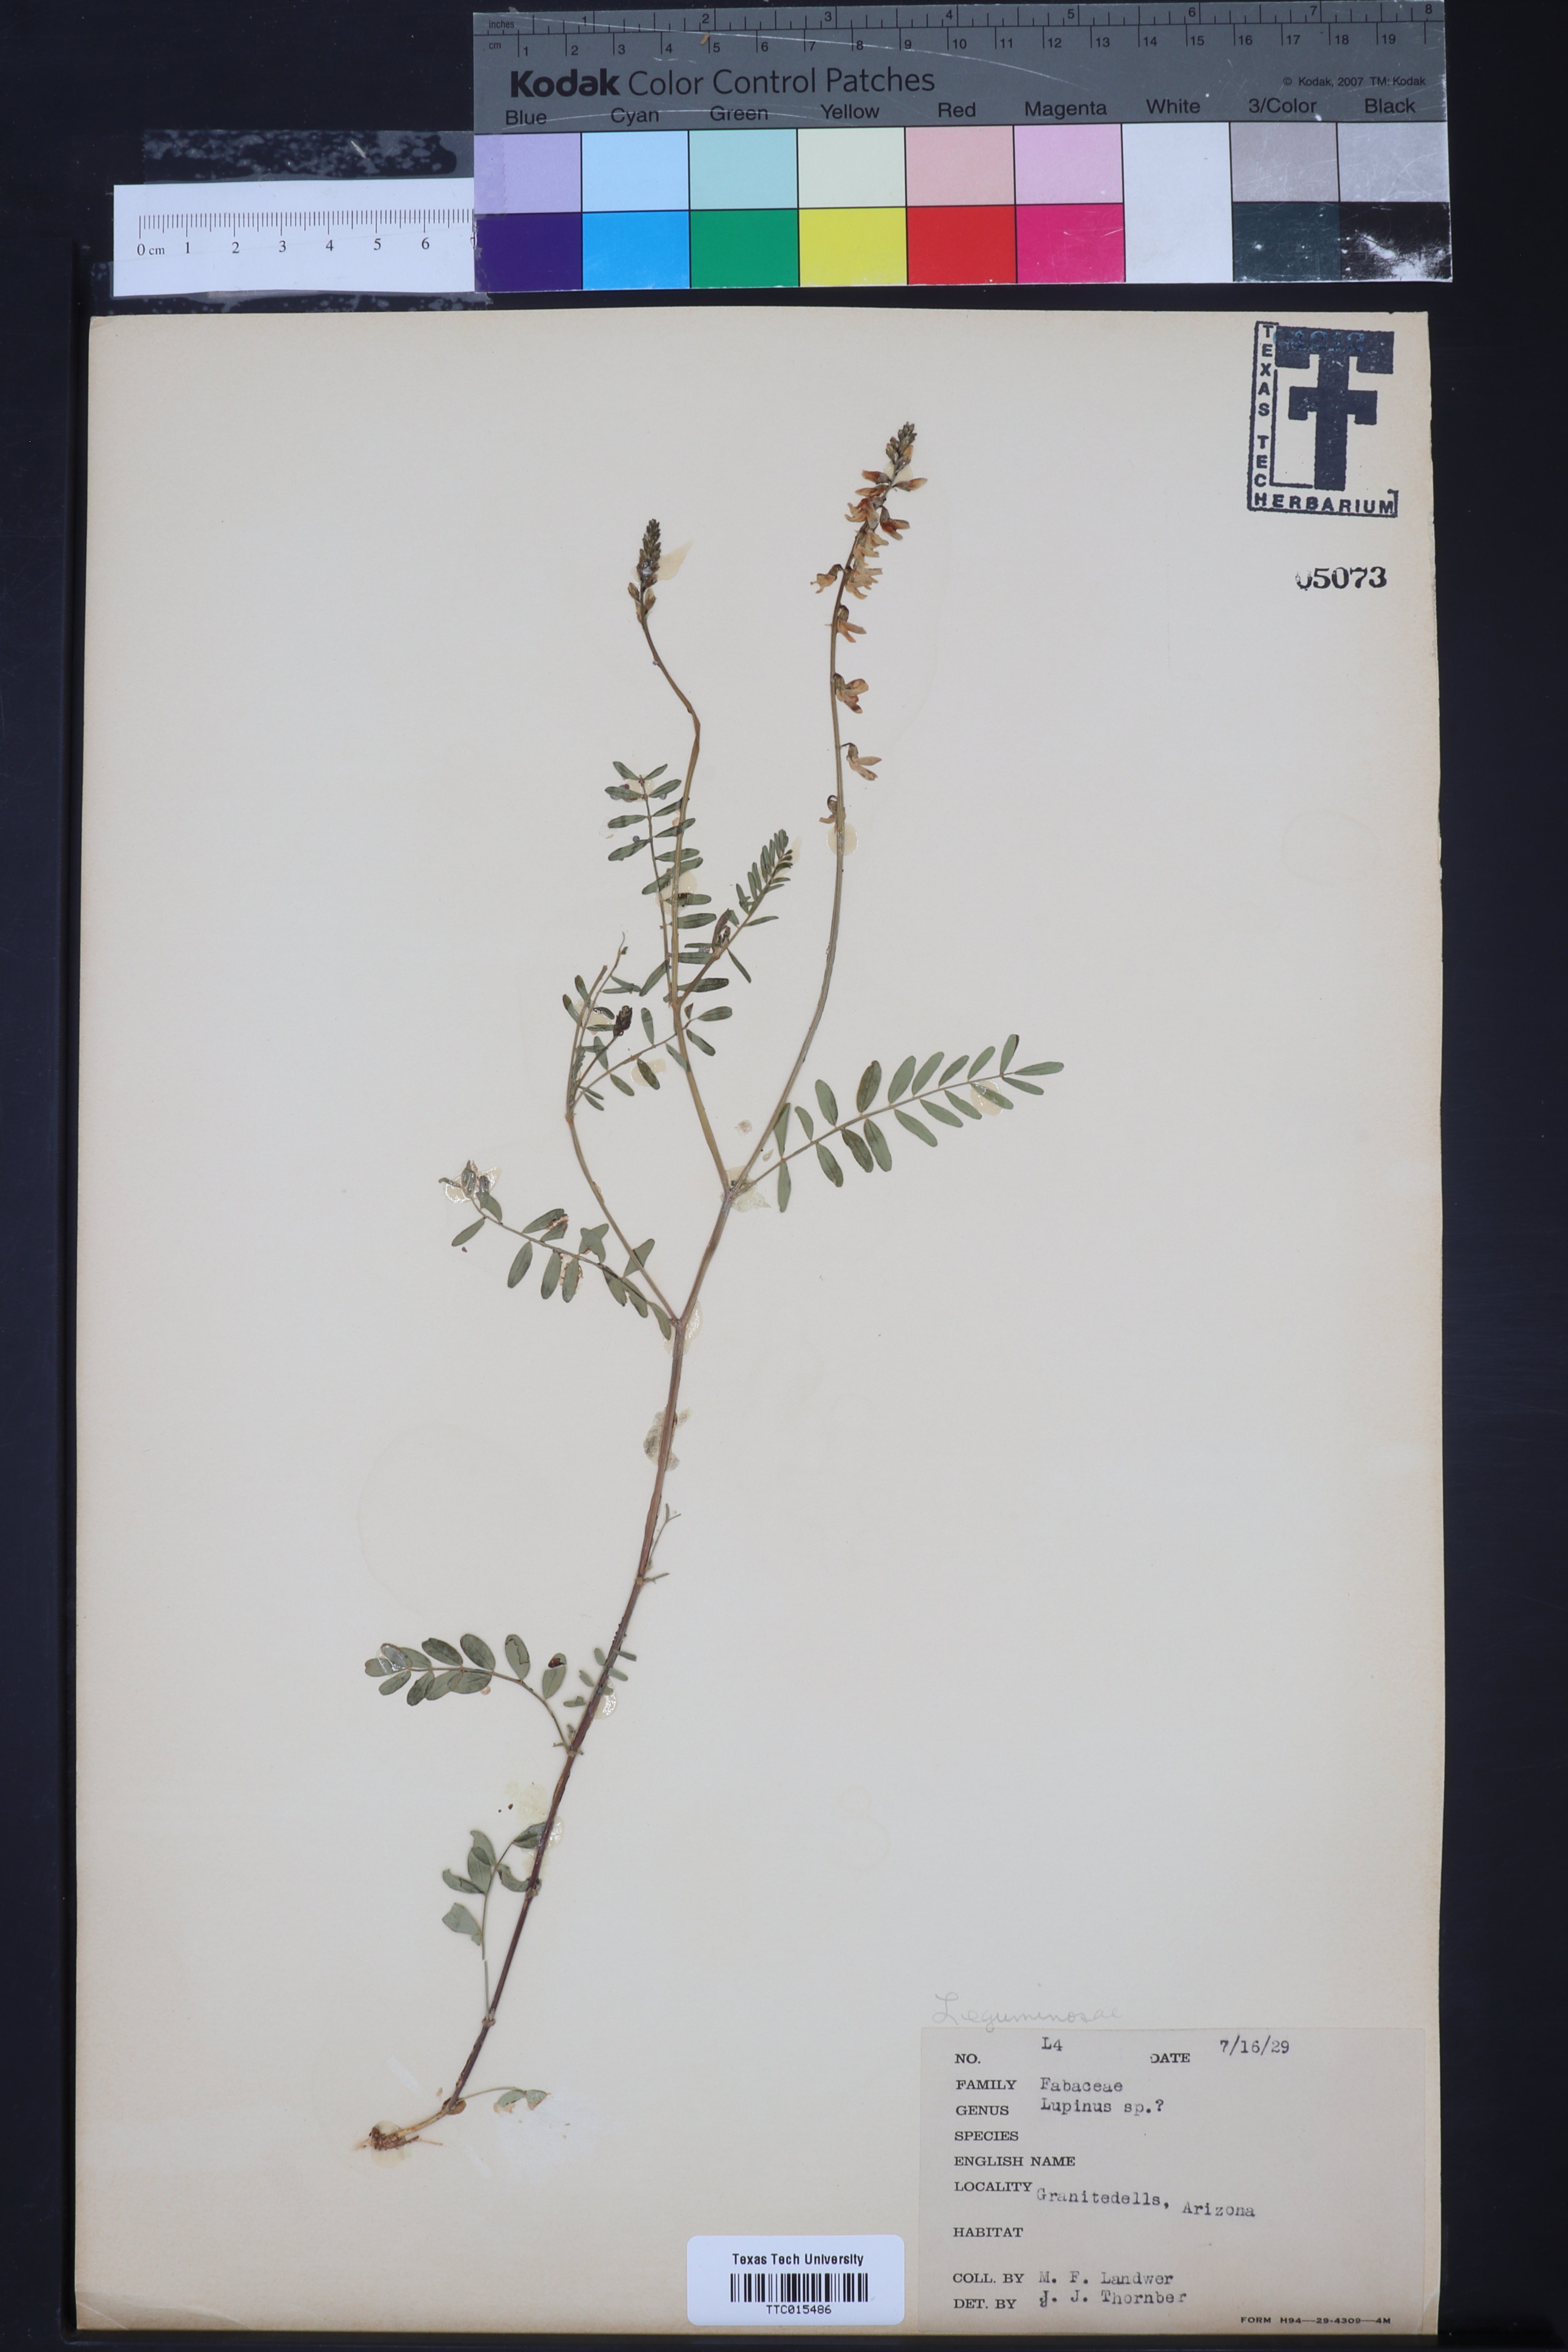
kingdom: Plantae
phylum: Tracheophyta
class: Magnoliopsida
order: Fabales
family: Fabaceae
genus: Lupinus
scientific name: Lupinus
